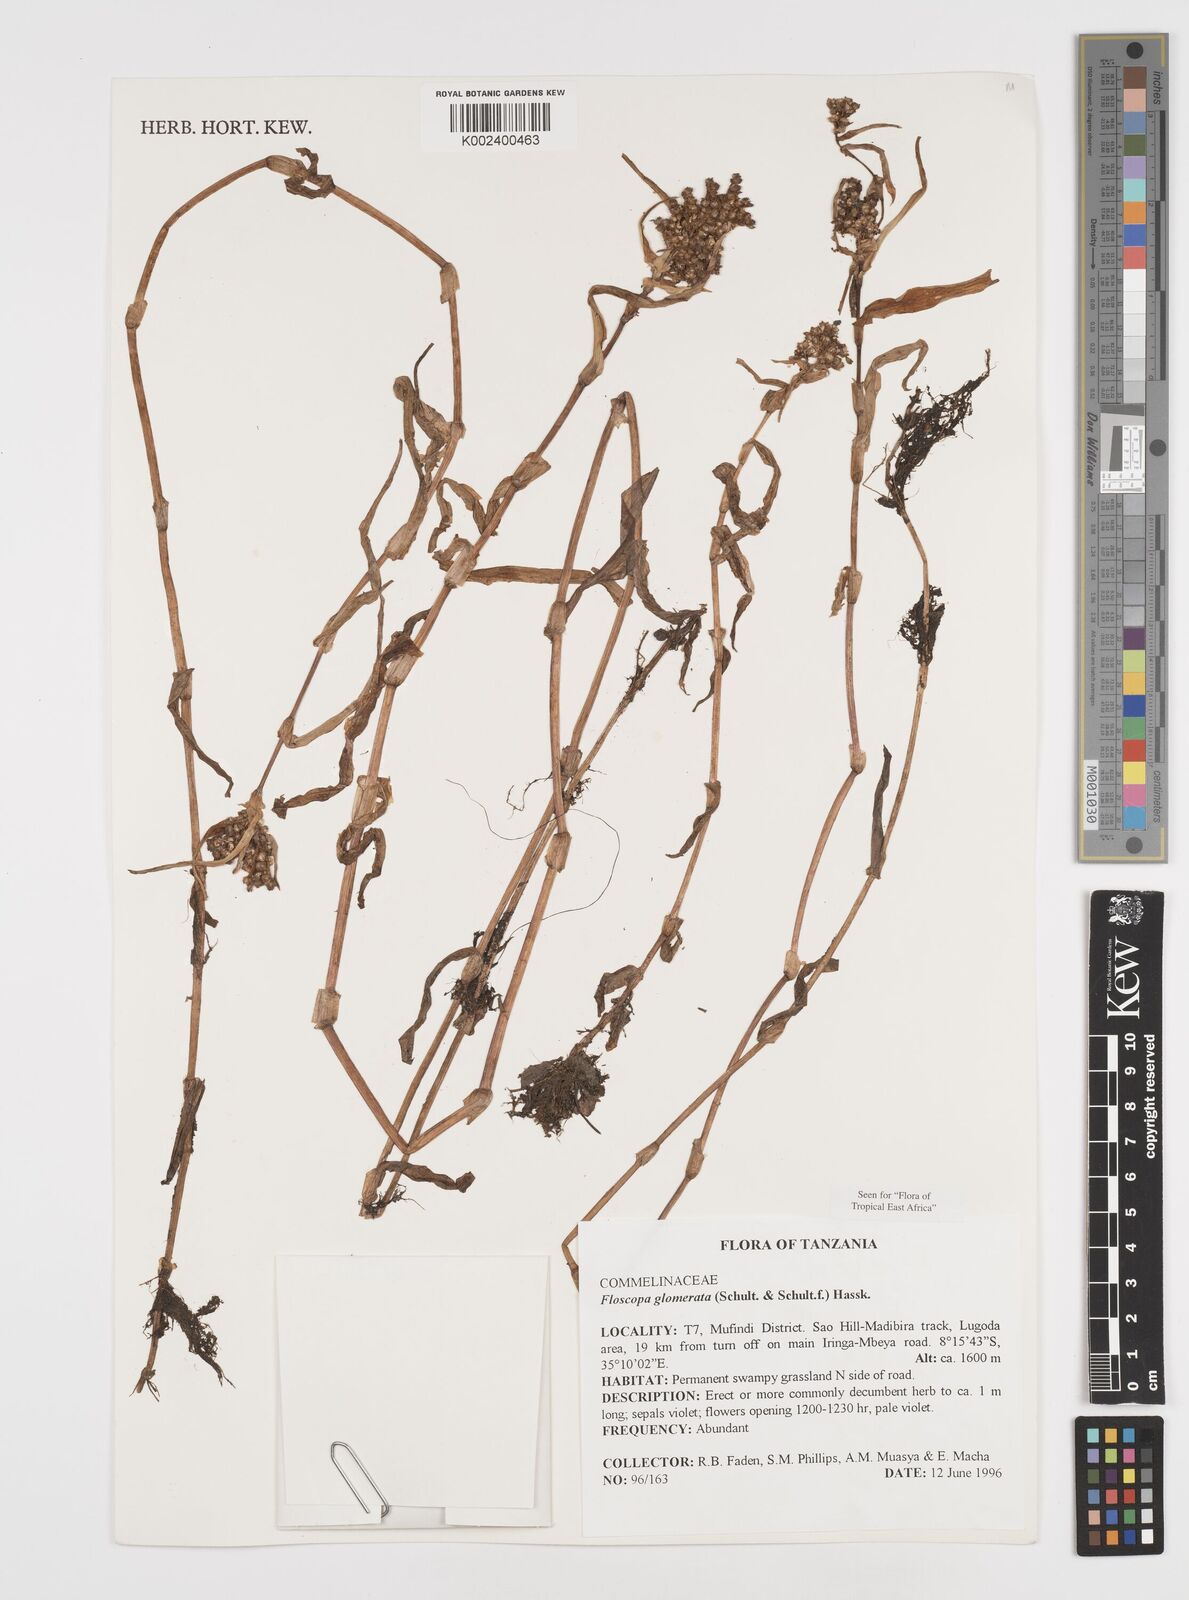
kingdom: Plantae
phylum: Tracheophyta
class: Liliopsida
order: Commelinales
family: Commelinaceae
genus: Floscopa
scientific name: Floscopa glomerata
